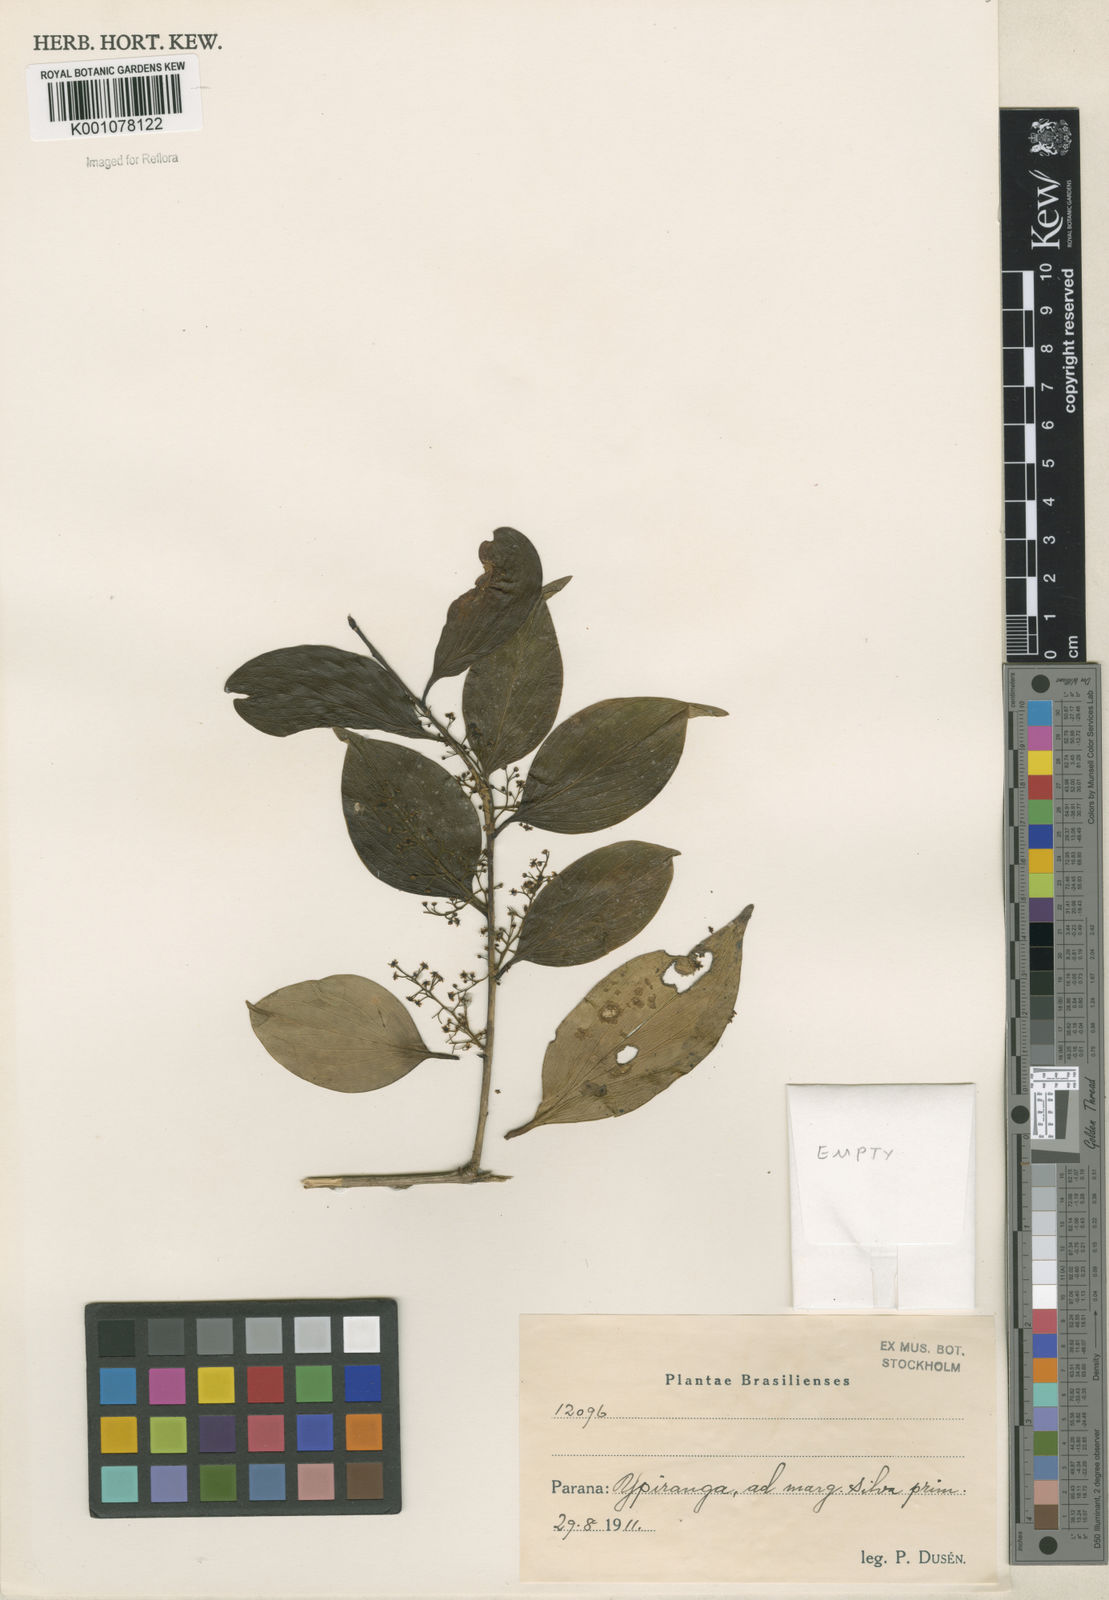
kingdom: Plantae
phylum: Tracheophyta
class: Magnoliopsida
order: Apiales
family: Griseliniaceae
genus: Griselinia
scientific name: Griselinia
